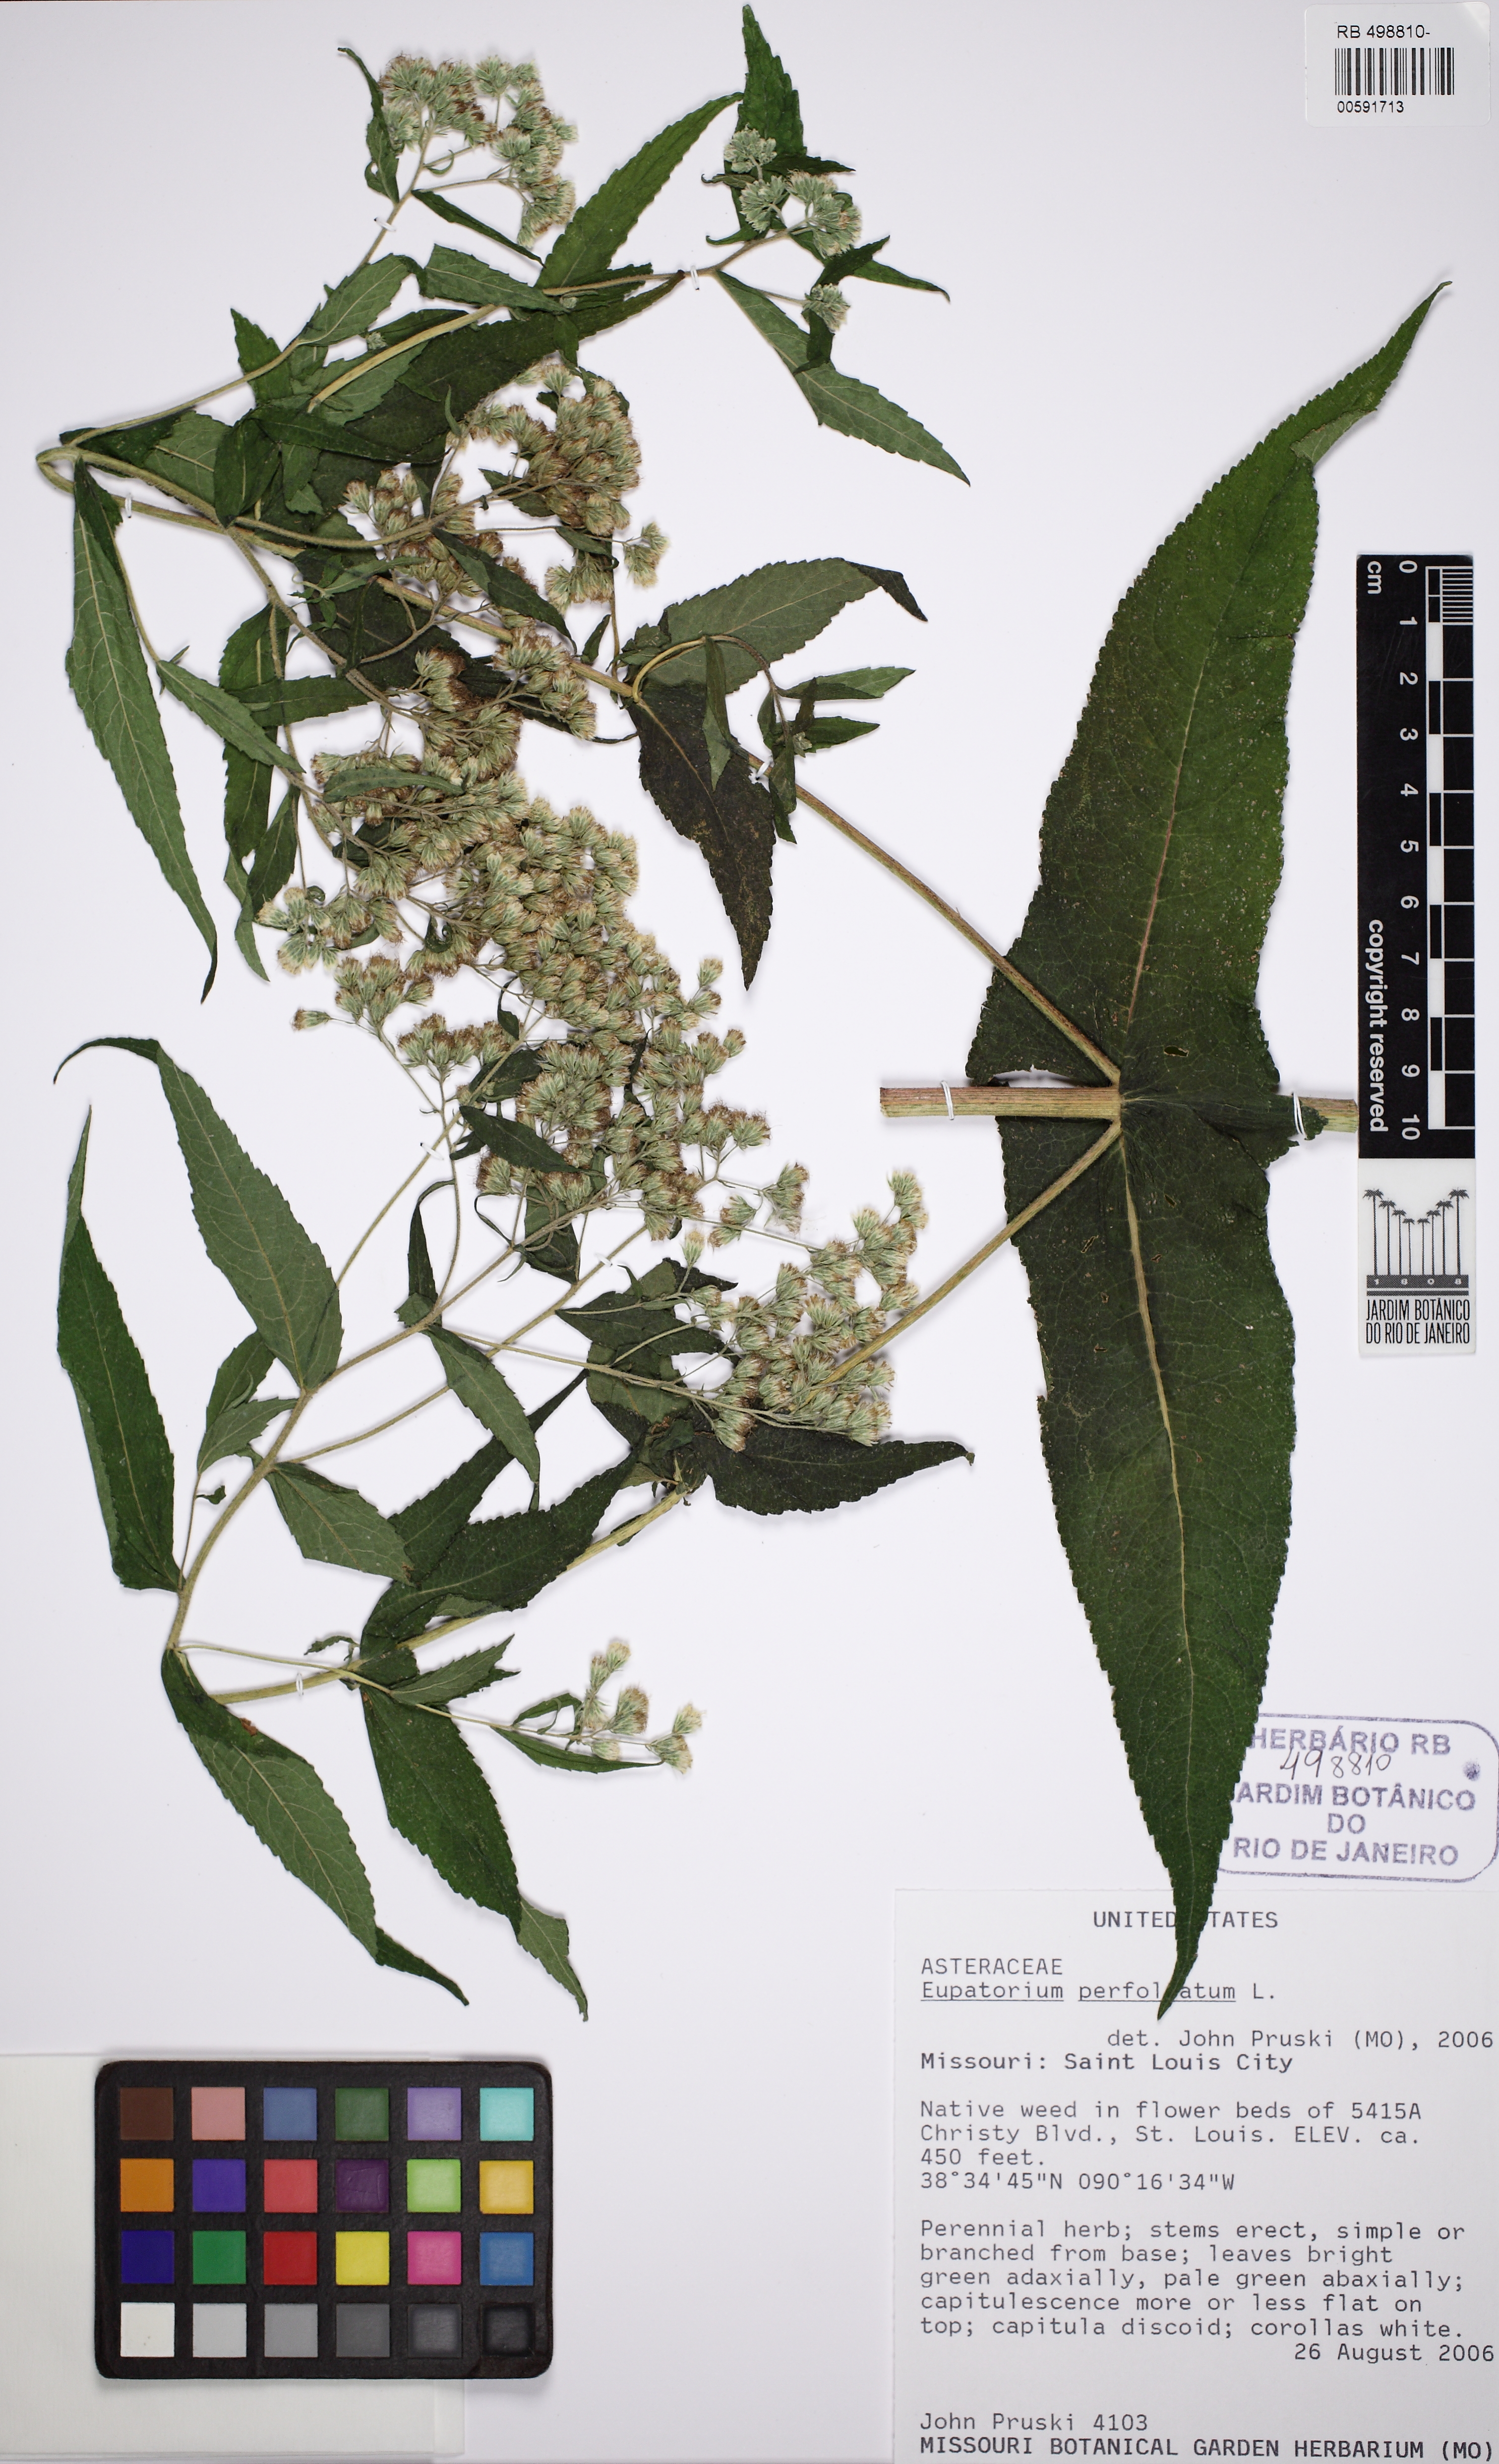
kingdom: Plantae
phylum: Tracheophyta
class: Magnoliopsida
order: Asterales
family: Asteraceae
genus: Eupatorium
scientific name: Eupatorium perfoliatum
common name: Boneset
